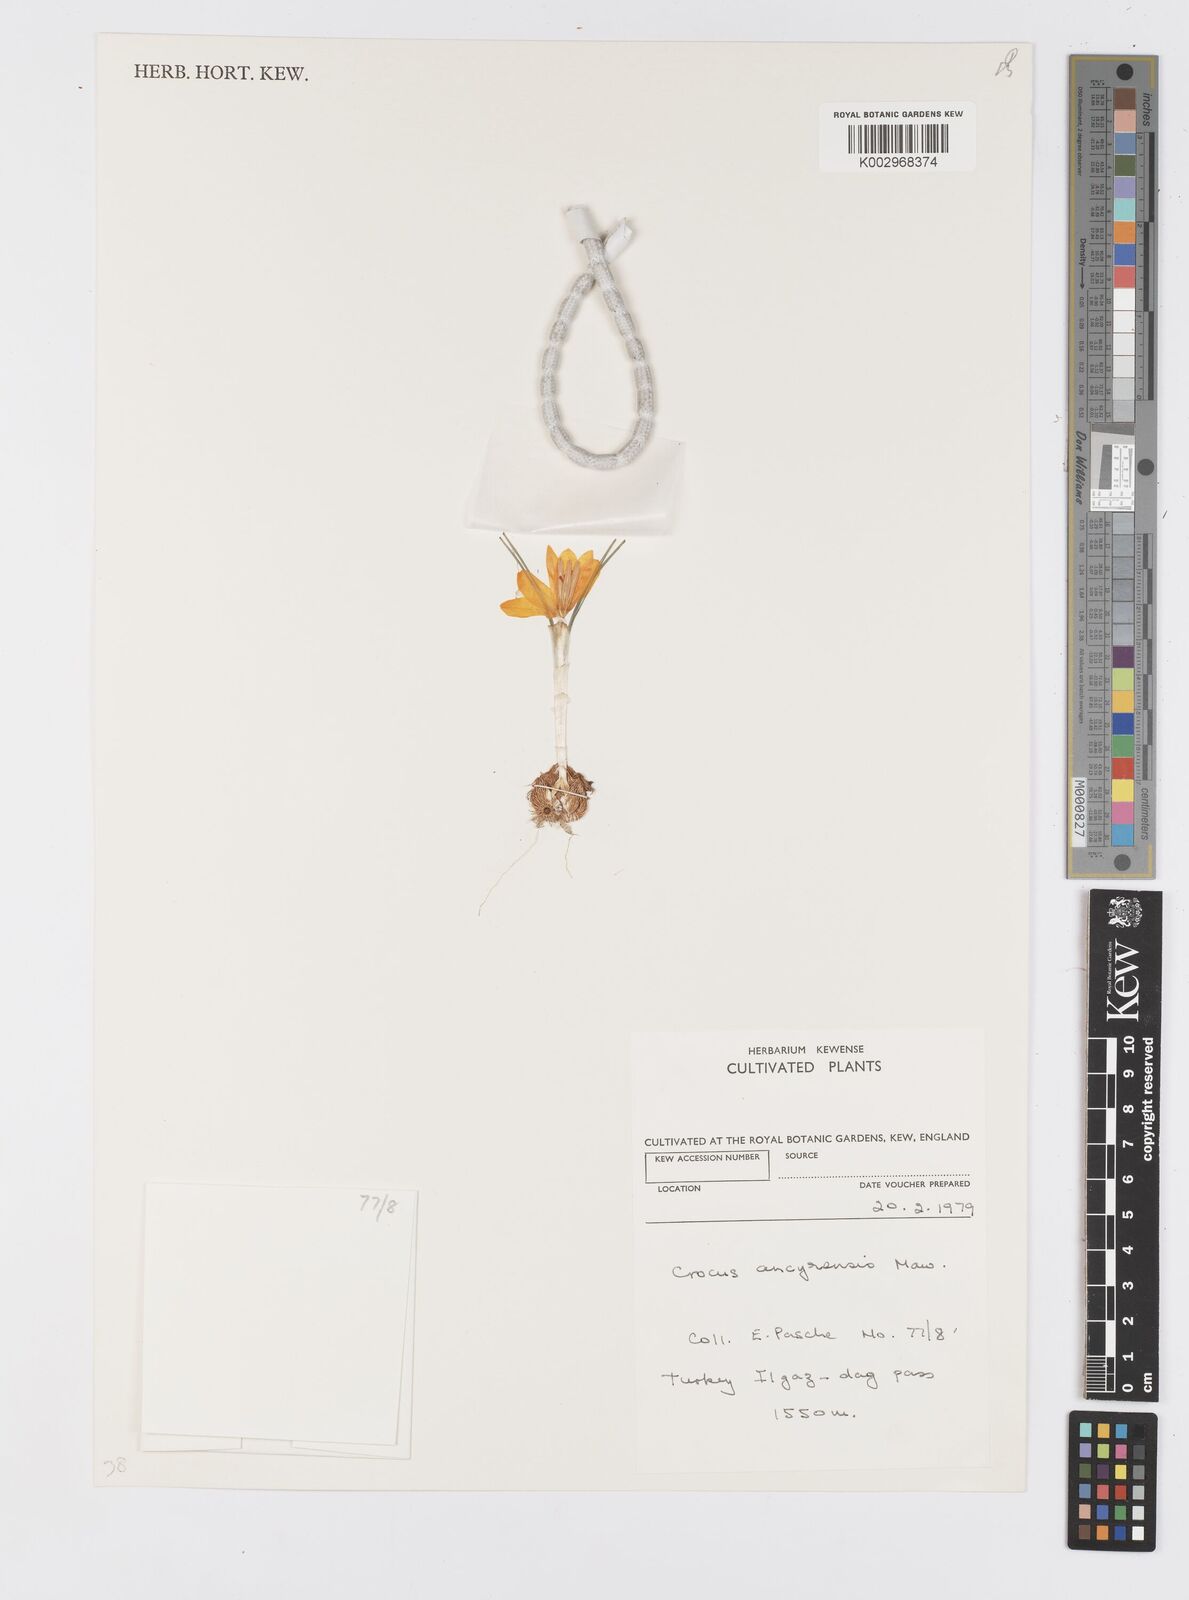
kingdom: Plantae
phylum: Tracheophyta
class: Liliopsida
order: Asparagales
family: Iridaceae
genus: Crocus
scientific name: Crocus ancyrensis
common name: Ankara crocus
